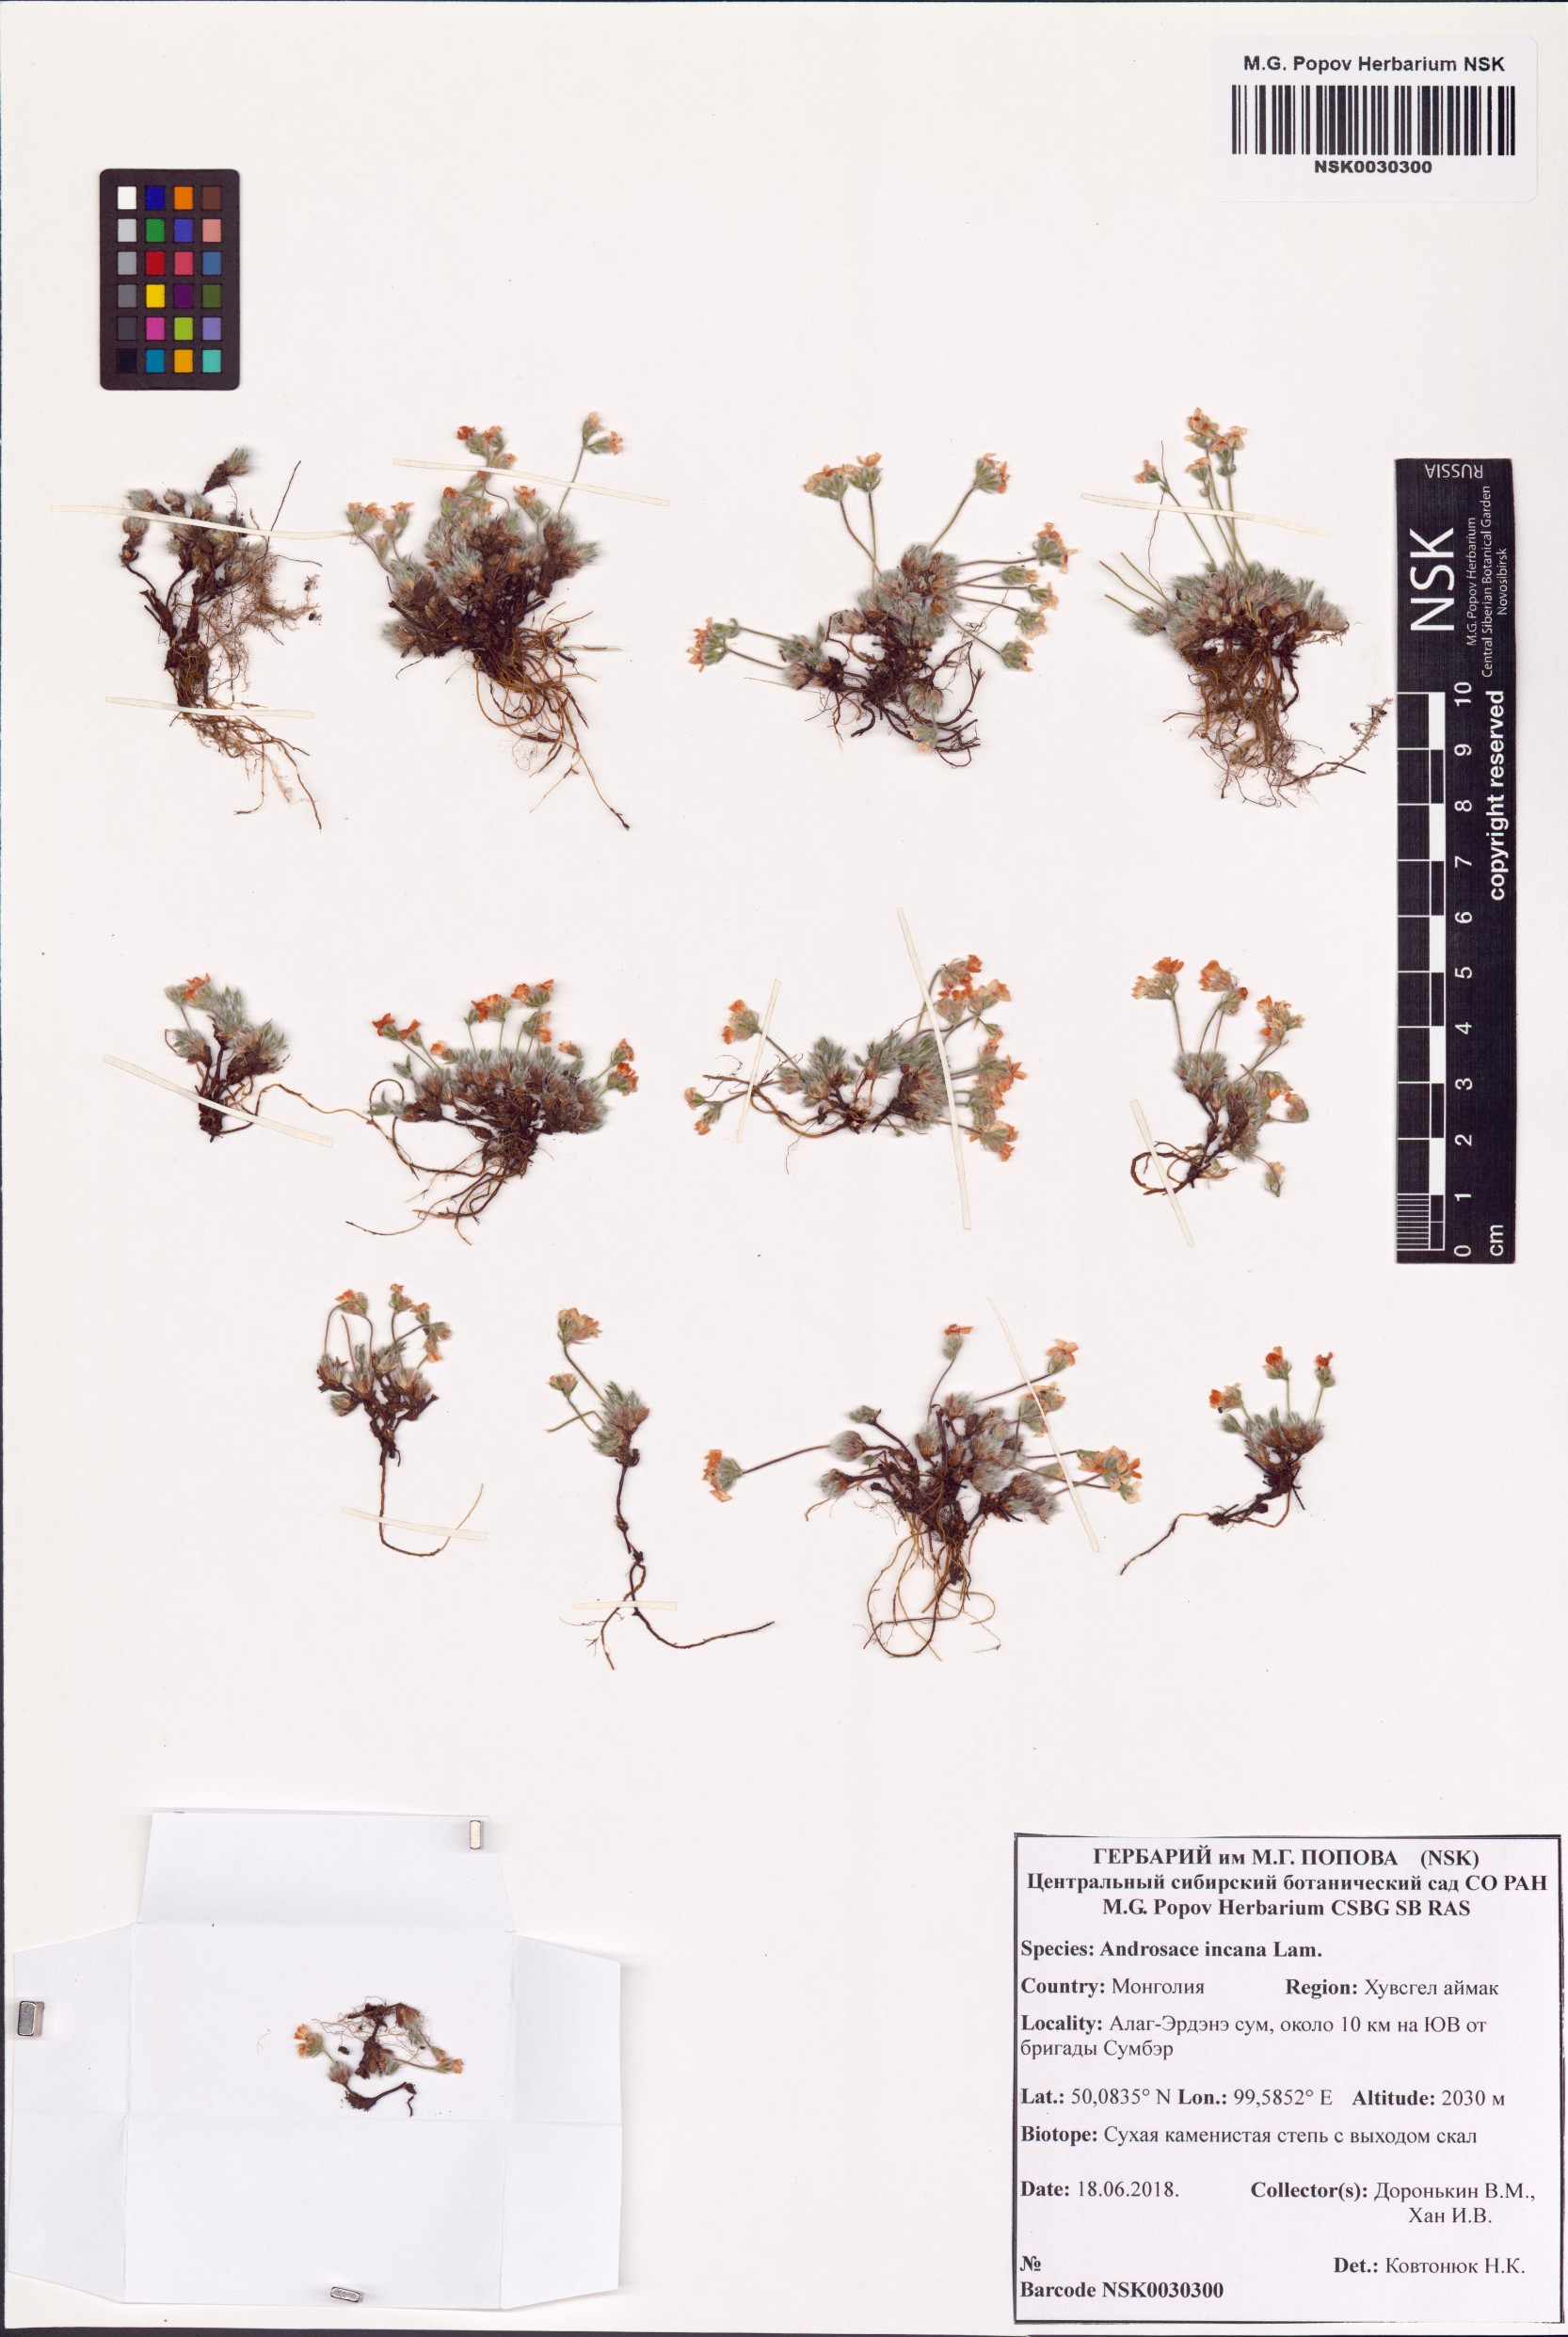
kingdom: Plantae
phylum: Tracheophyta
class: Magnoliopsida
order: Ericales
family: Primulaceae
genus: Androsace
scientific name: Androsace incana
